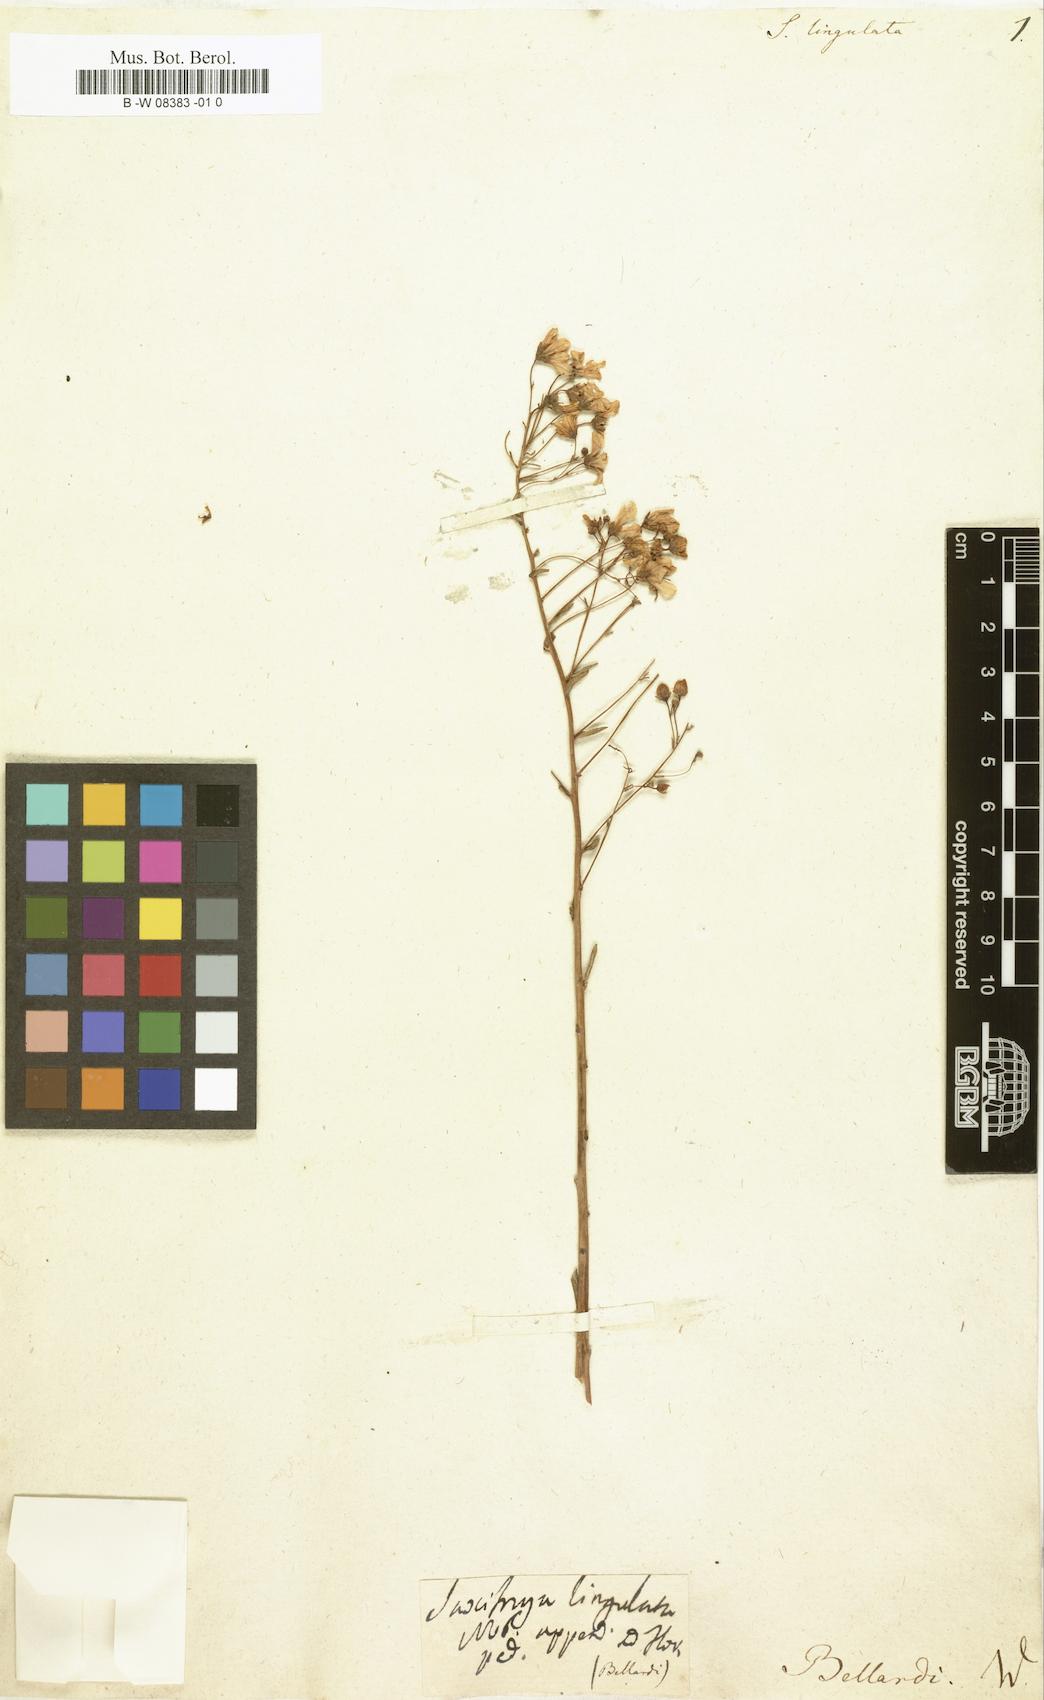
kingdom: Plantae
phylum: Tracheophyta
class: Magnoliopsida
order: Saxifragales
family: Saxifragaceae
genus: Saxifraga
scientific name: Saxifraga
